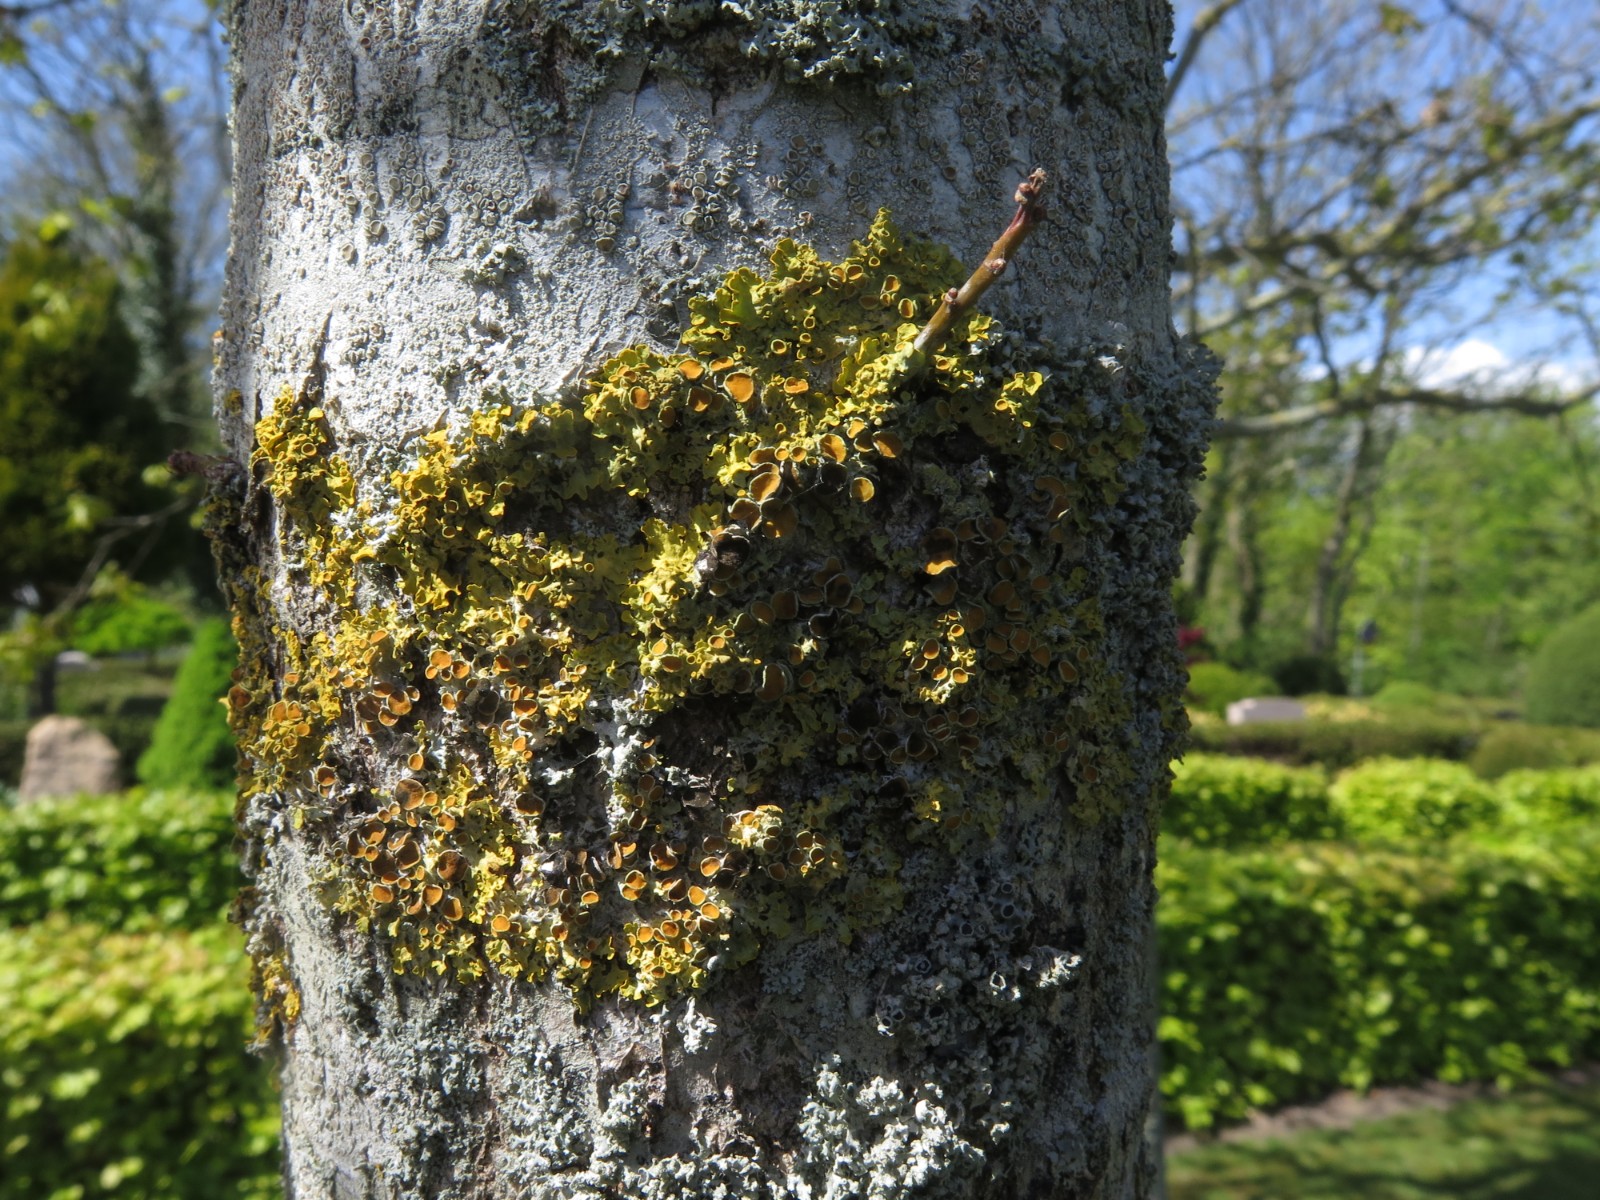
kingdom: Fungi
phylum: Ascomycota
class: Lecanoromycetes
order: Teloschistales
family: Teloschistaceae
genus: Xanthoria
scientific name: Xanthoria parietina
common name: almindelig væggelav
